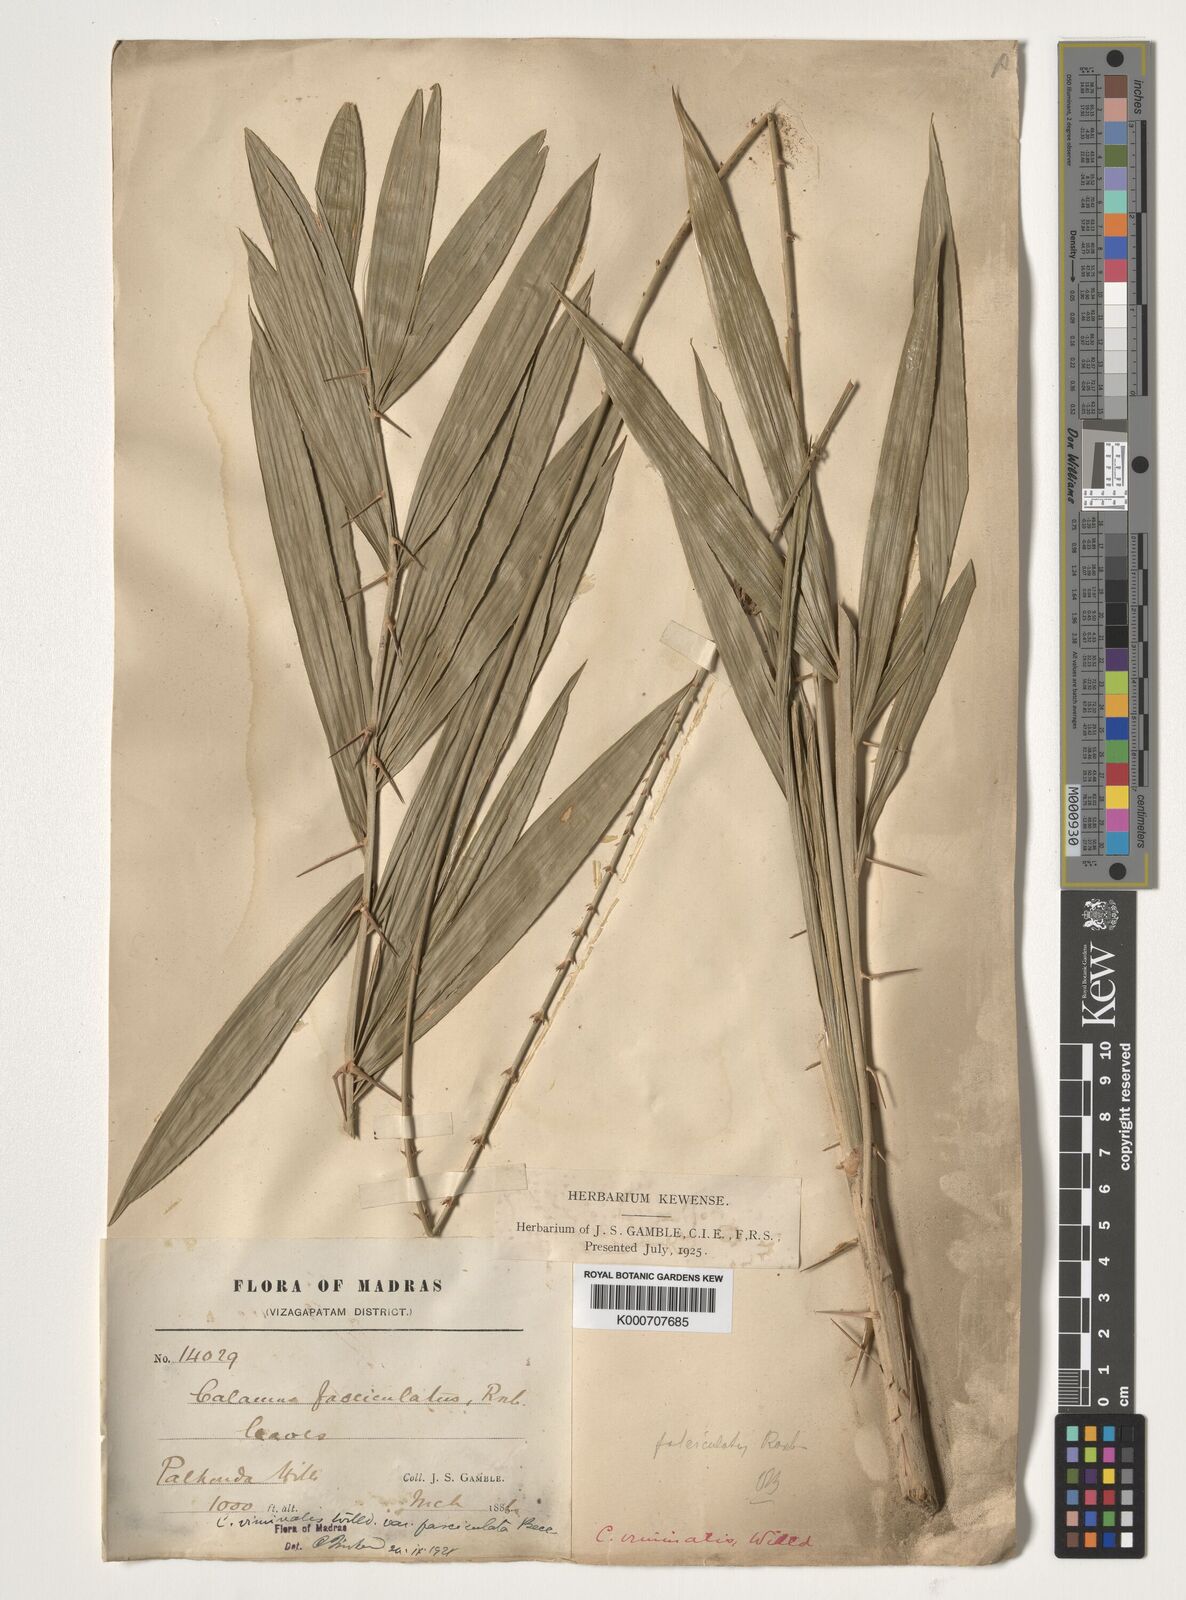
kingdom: Plantae
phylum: Tracheophyta
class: Liliopsida
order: Arecales
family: Arecaceae
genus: Calamus
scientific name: Calamus viminalis
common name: Osier-like rattan palm
